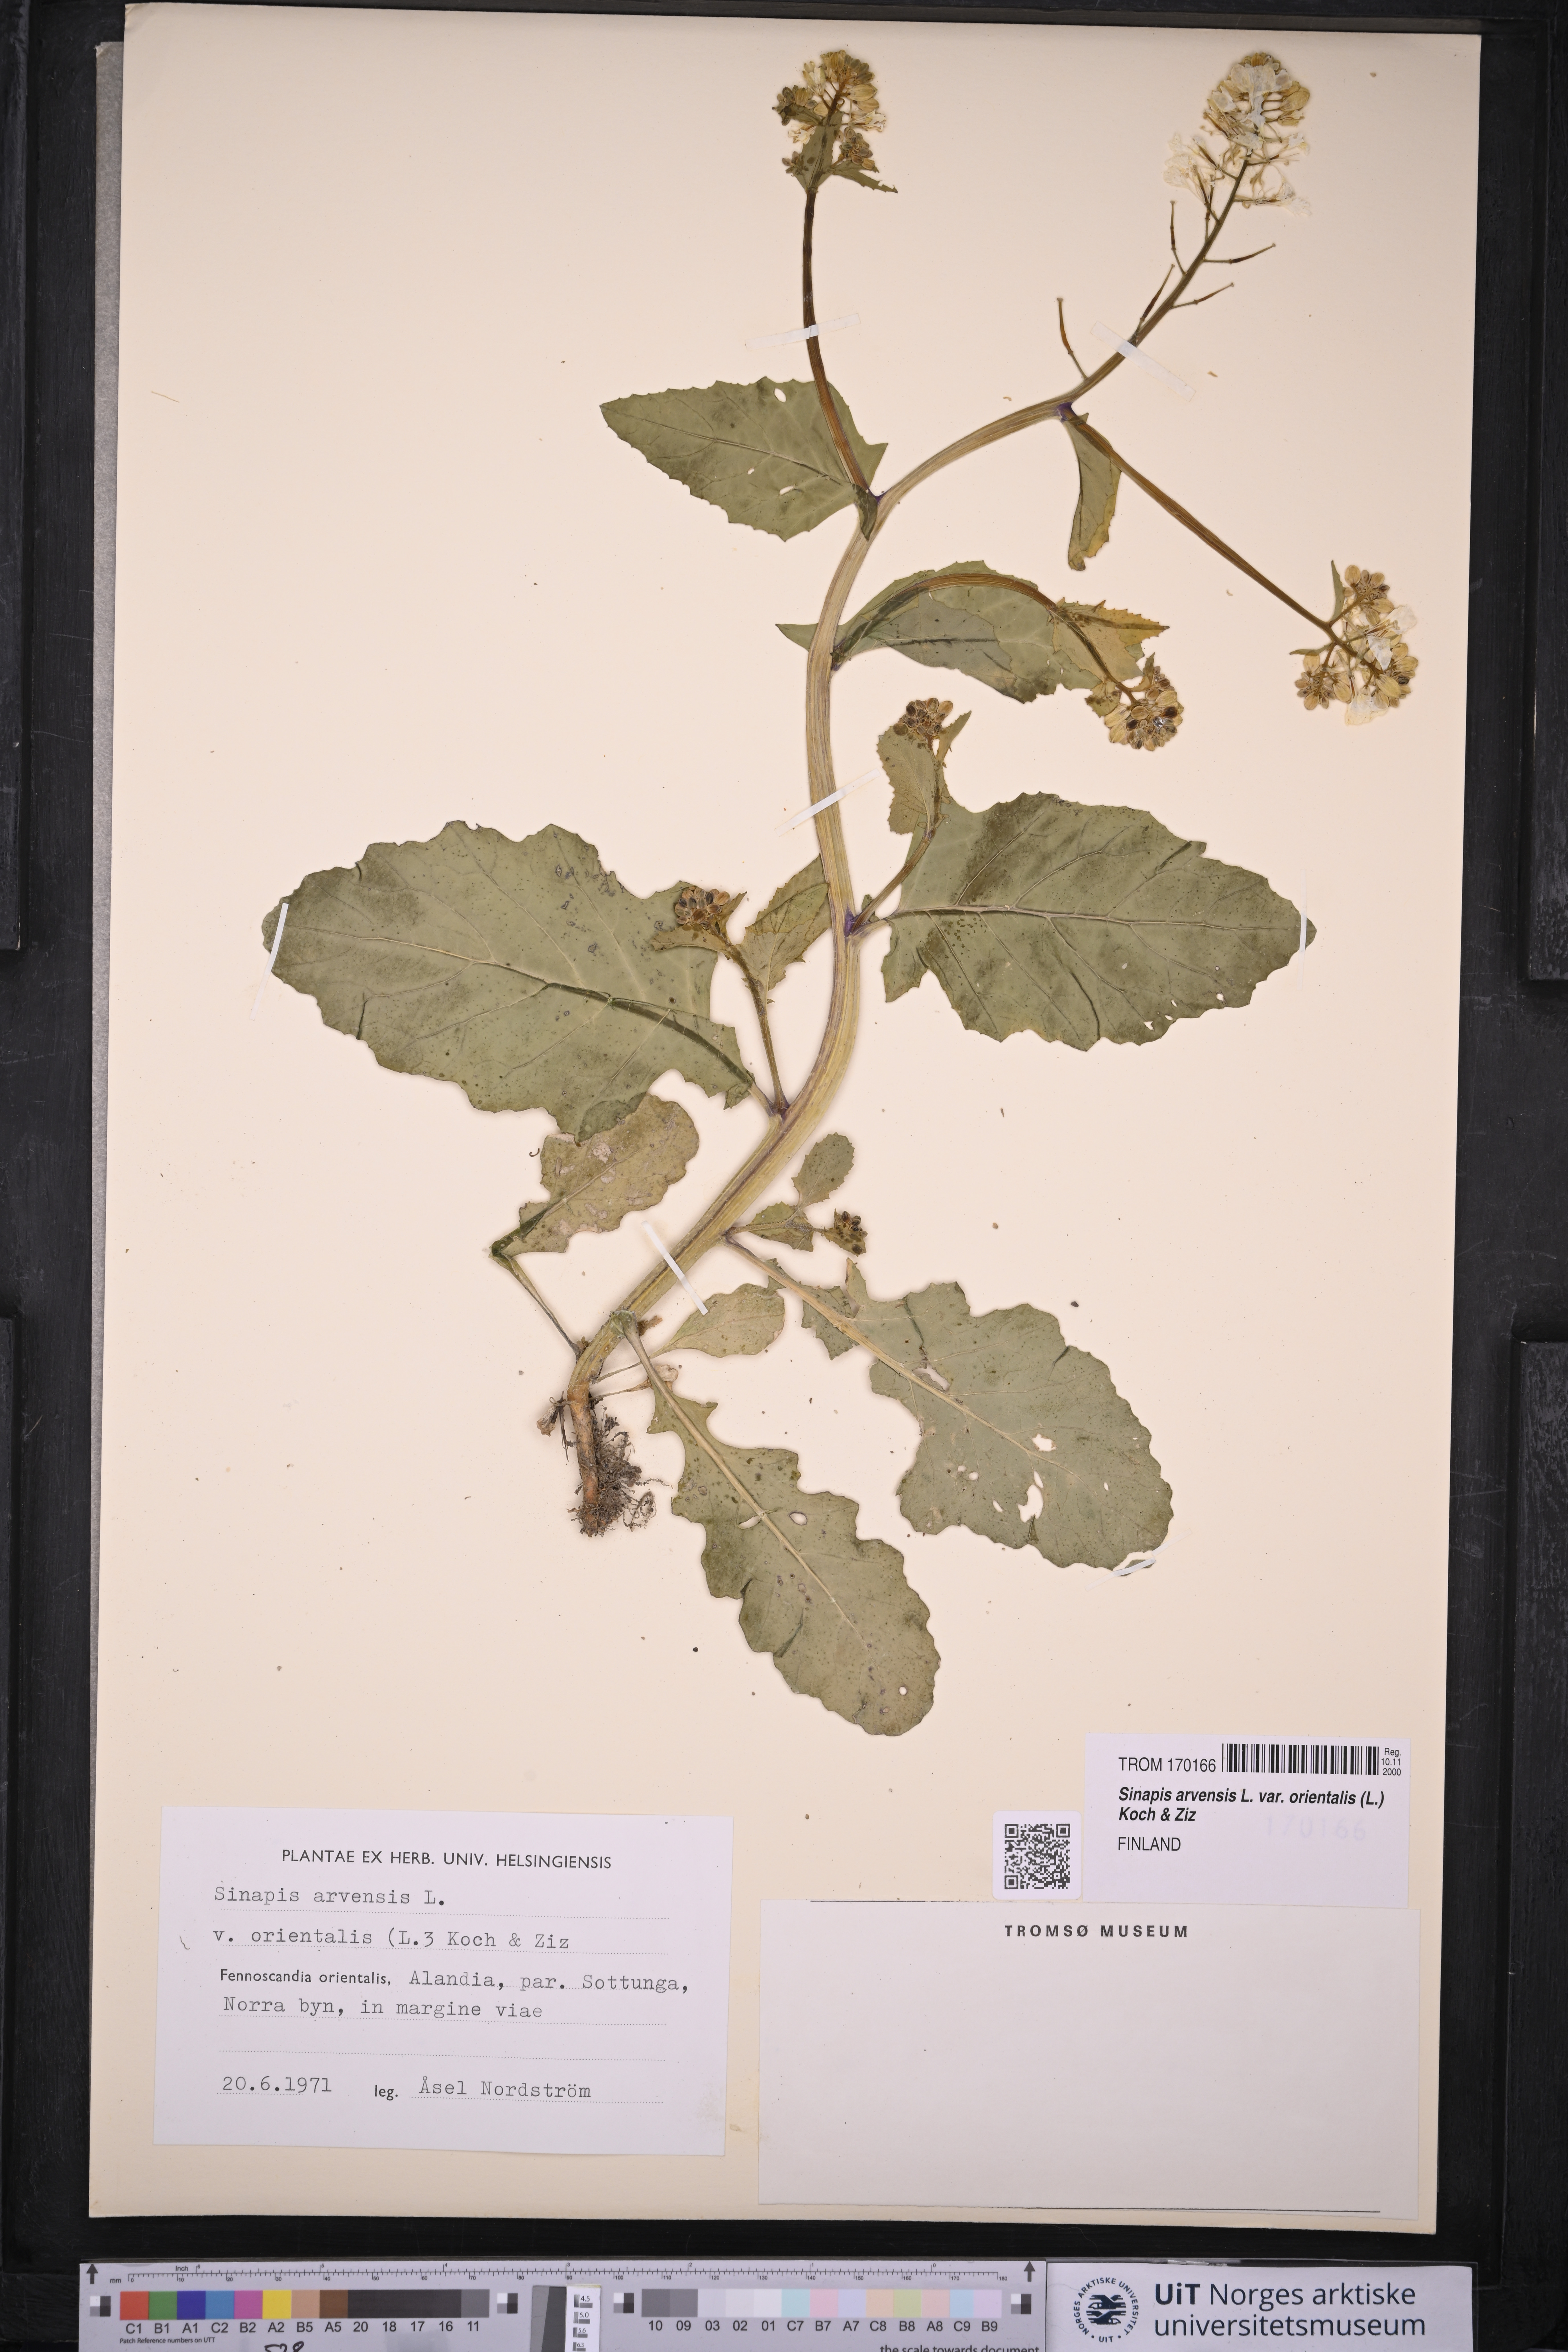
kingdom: Plantae
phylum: Tracheophyta
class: Magnoliopsida
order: Brassicales
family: Brassicaceae
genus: Sinapis
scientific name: Sinapis arvensis
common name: Charlock
